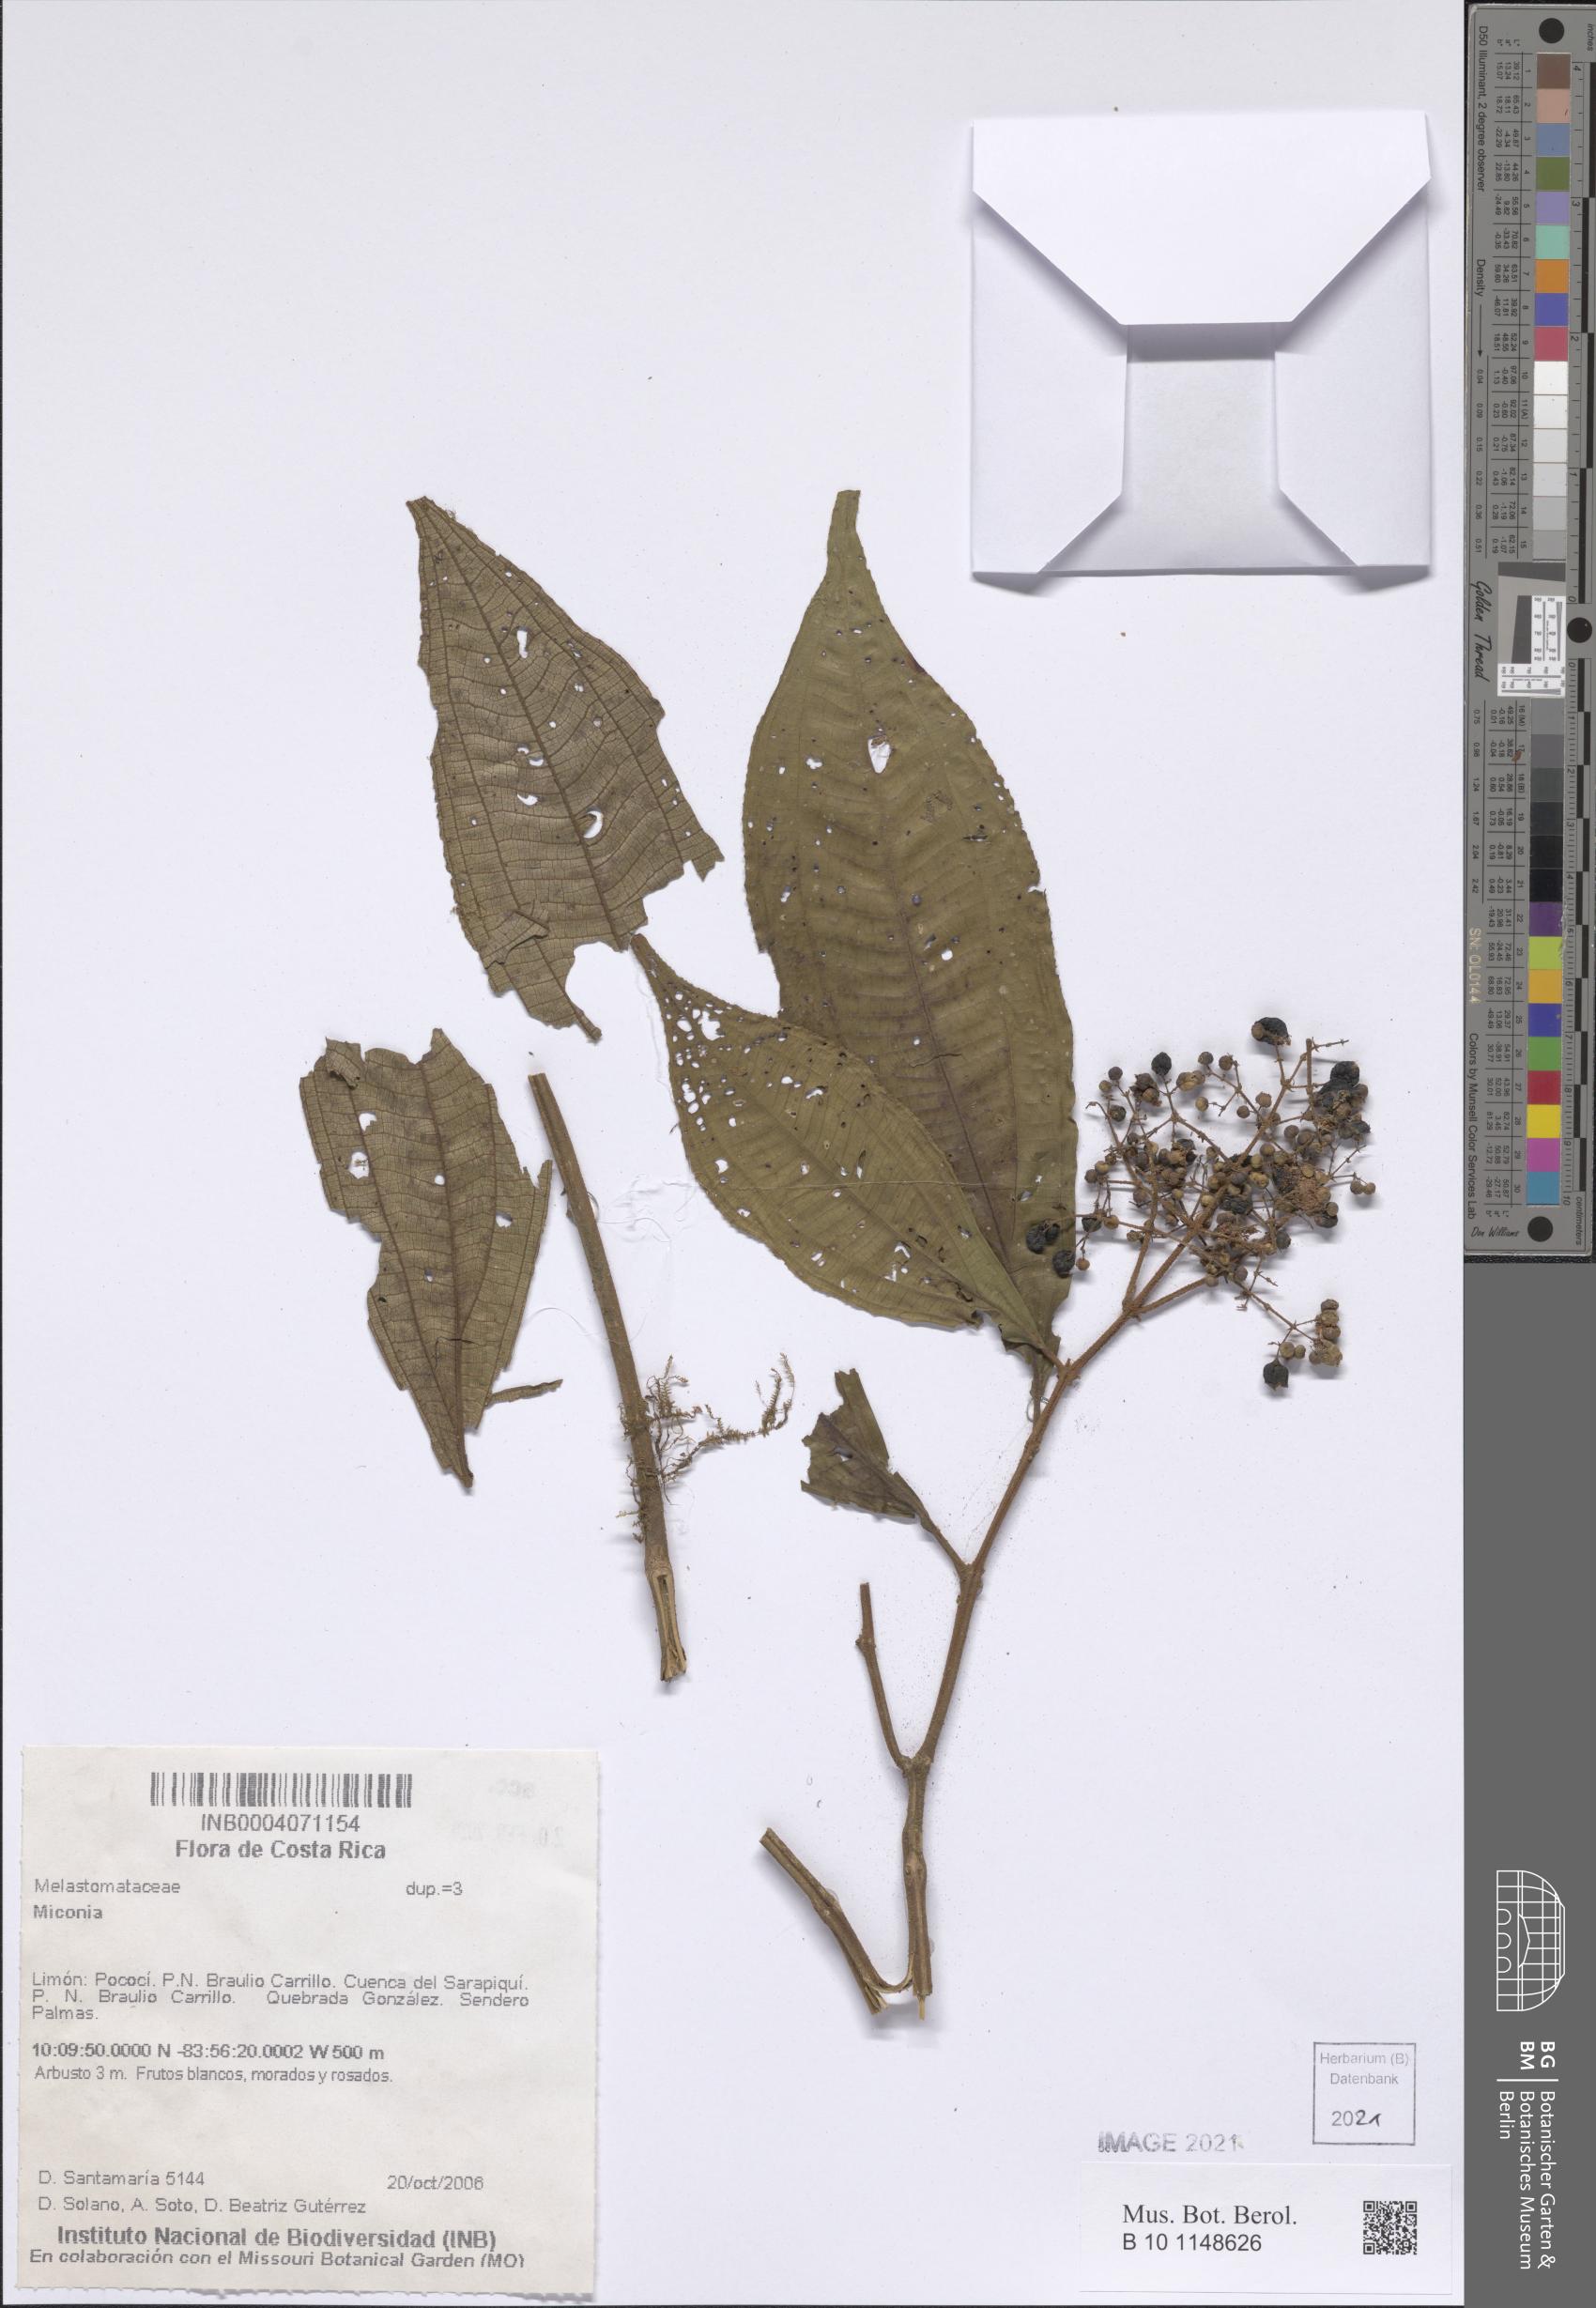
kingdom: Plantae
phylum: Tracheophyta
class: Magnoliopsida
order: Myrtales
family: Melastomataceae
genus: Miconia
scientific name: Miconia
